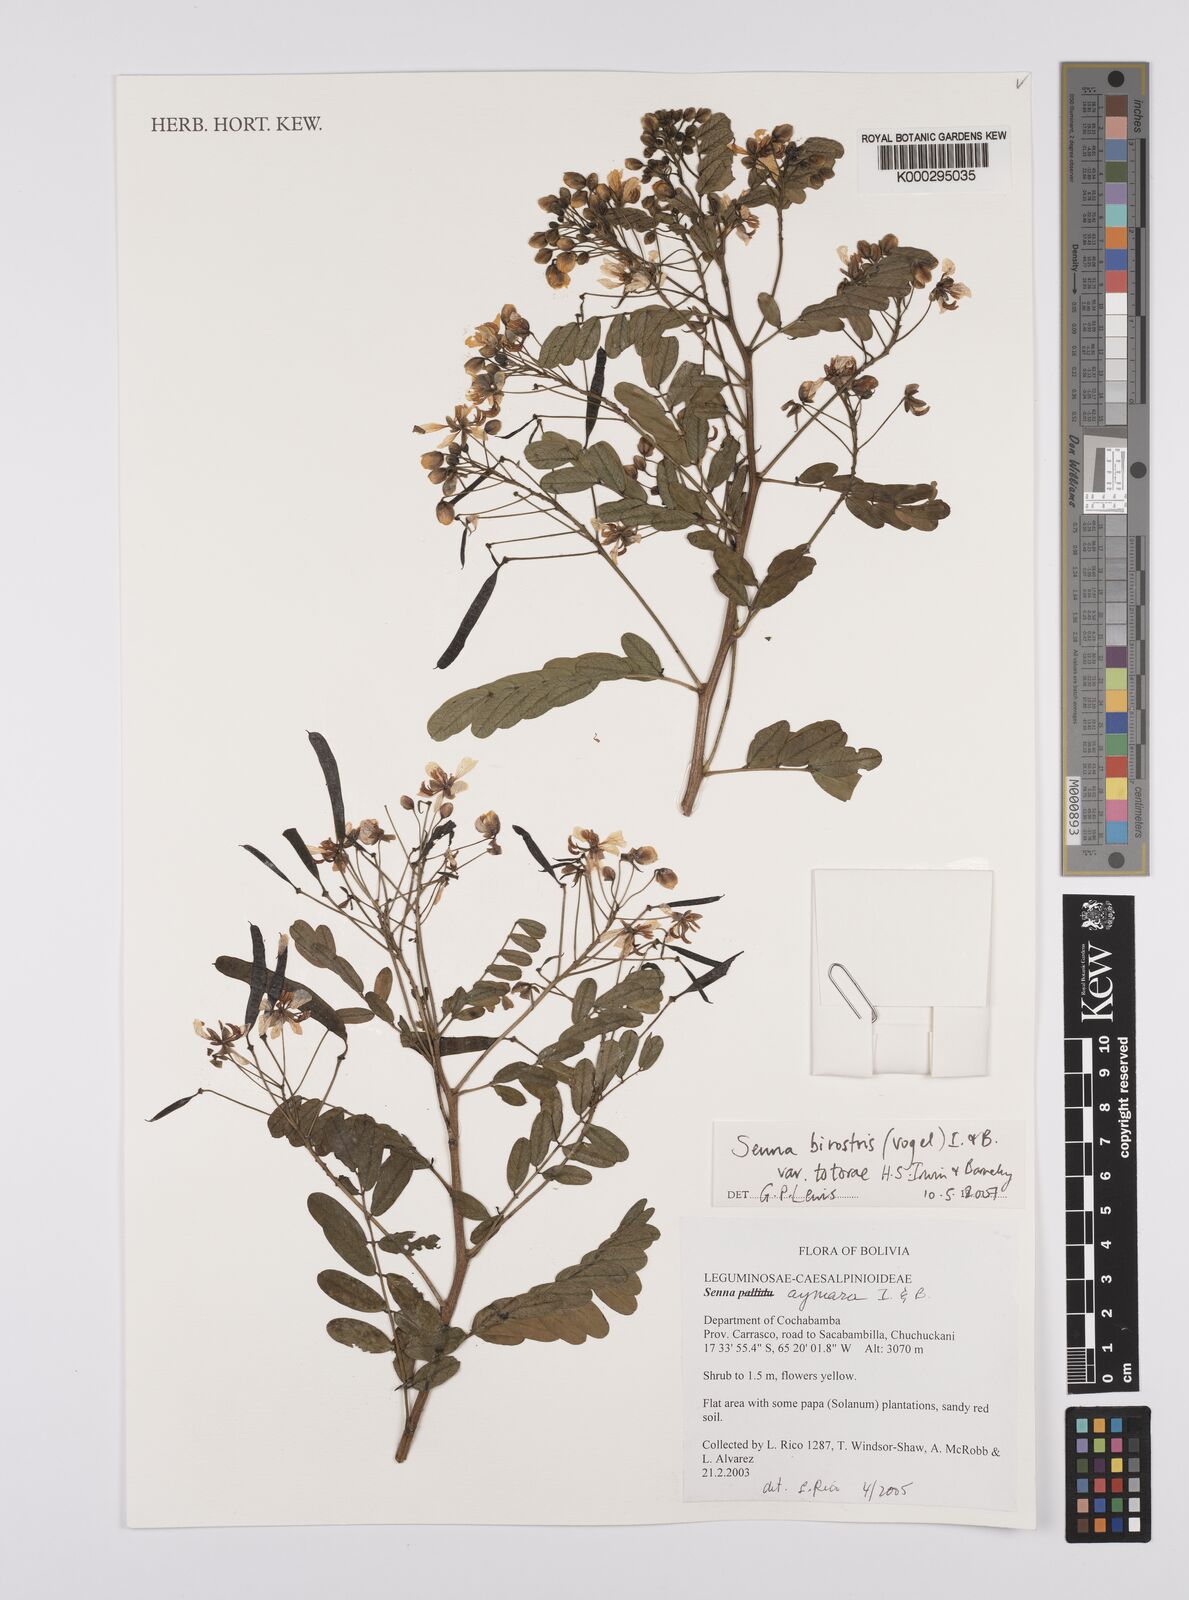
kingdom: Plantae
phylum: Tracheophyta
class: Magnoliopsida
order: Fabales
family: Fabaceae
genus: Senna
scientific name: Senna birostris
